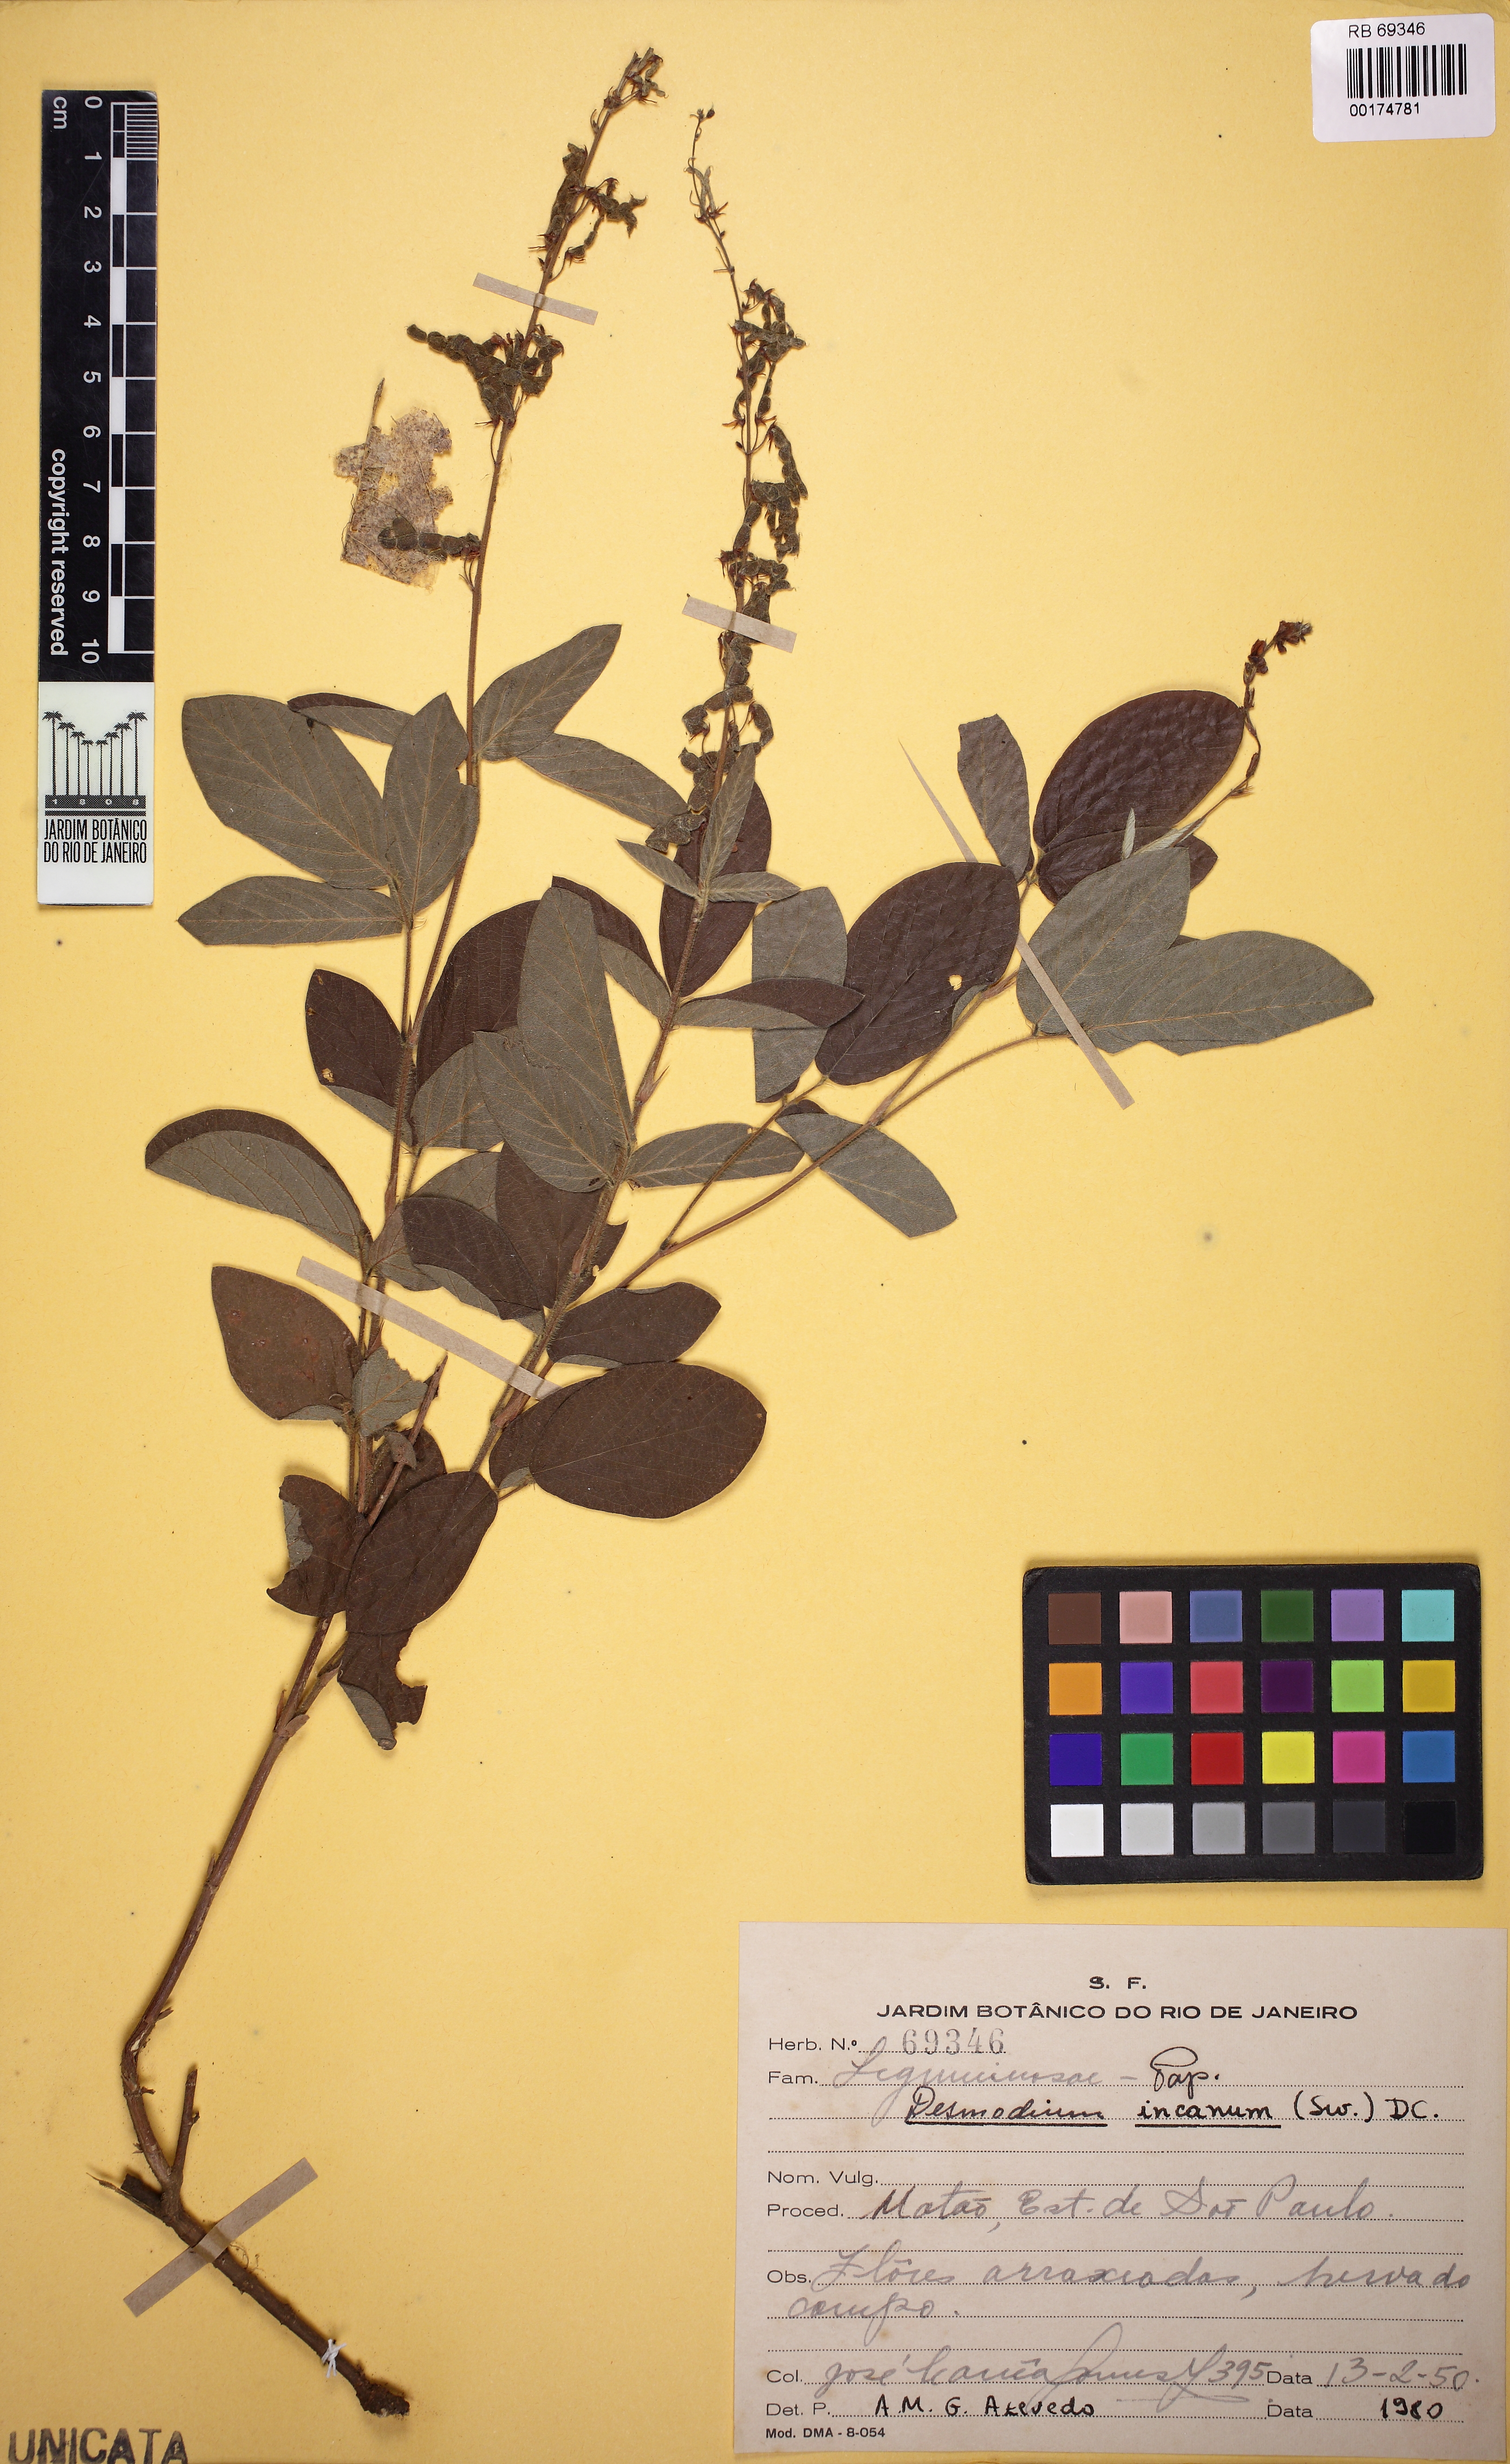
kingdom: Plantae
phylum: Tracheophyta
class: Magnoliopsida
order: Fabales
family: Fabaceae
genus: Desmodium
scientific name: Desmodium incanum
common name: Tickclover
